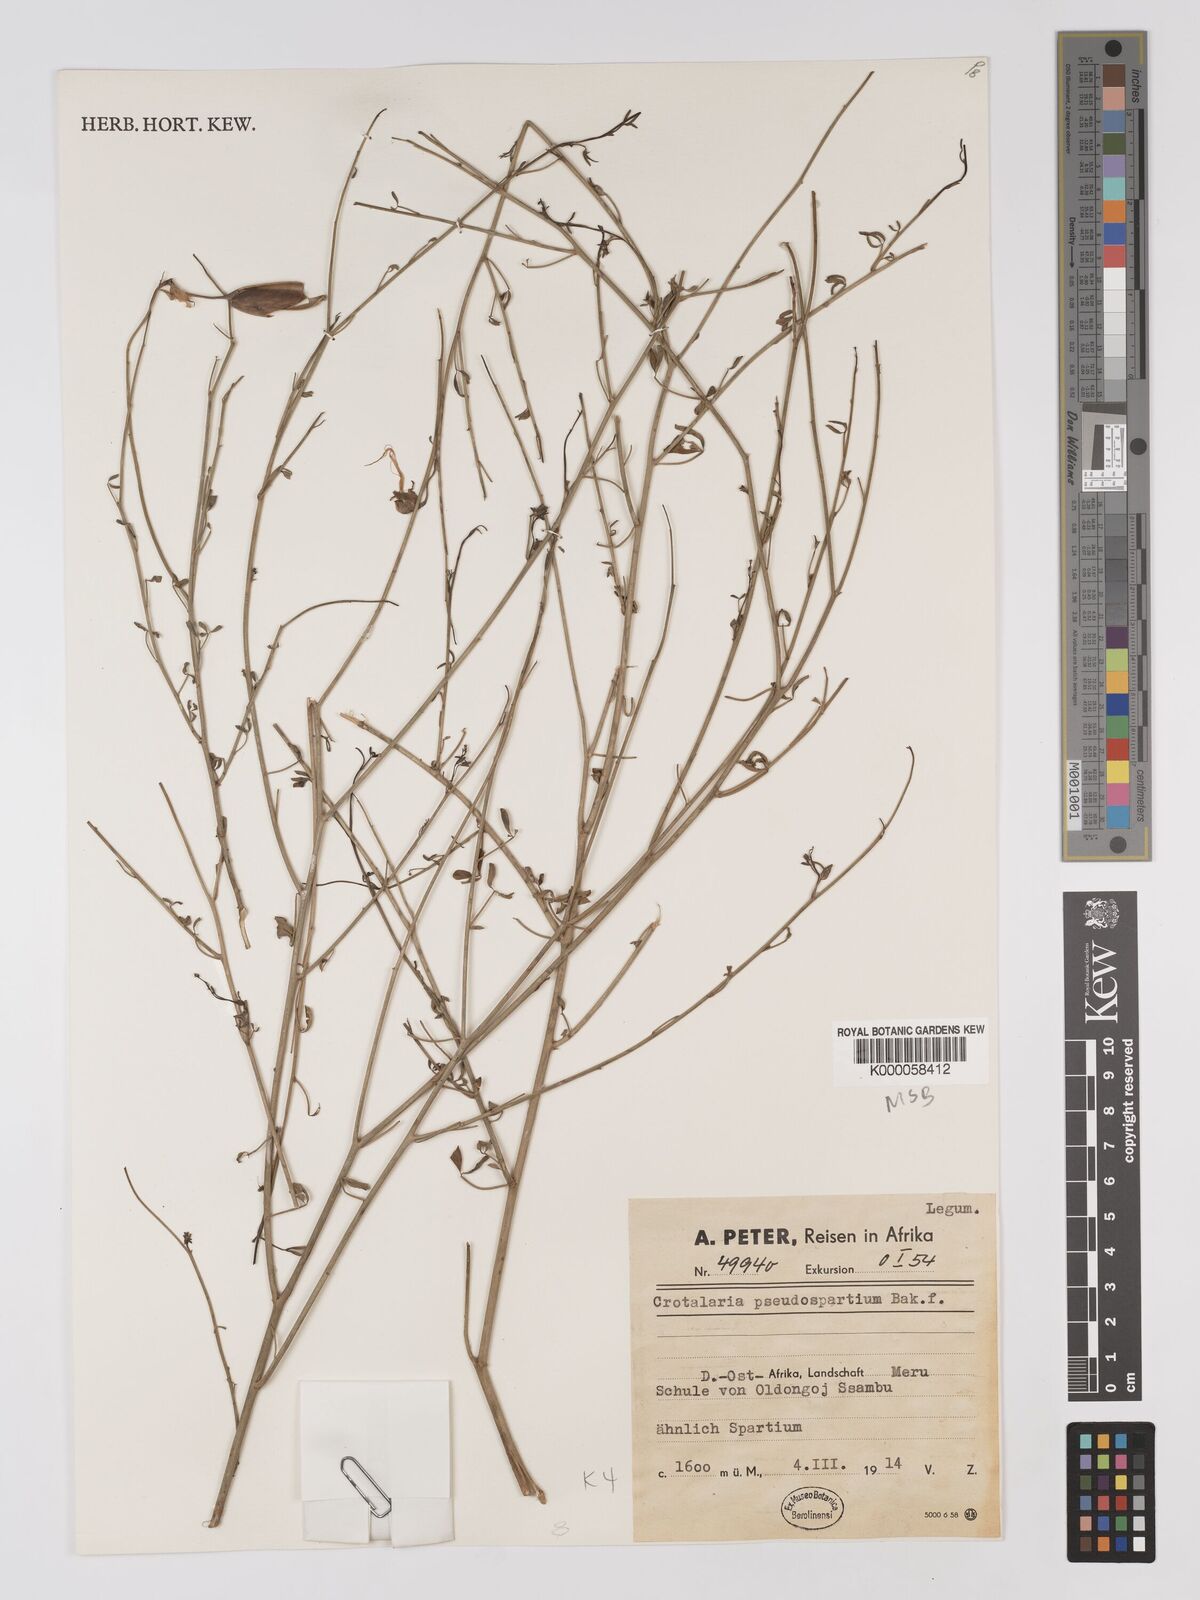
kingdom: Plantae
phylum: Tracheophyta
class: Magnoliopsida
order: Fabales
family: Fabaceae
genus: Crotalaria
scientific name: Crotalaria pseudospartium
